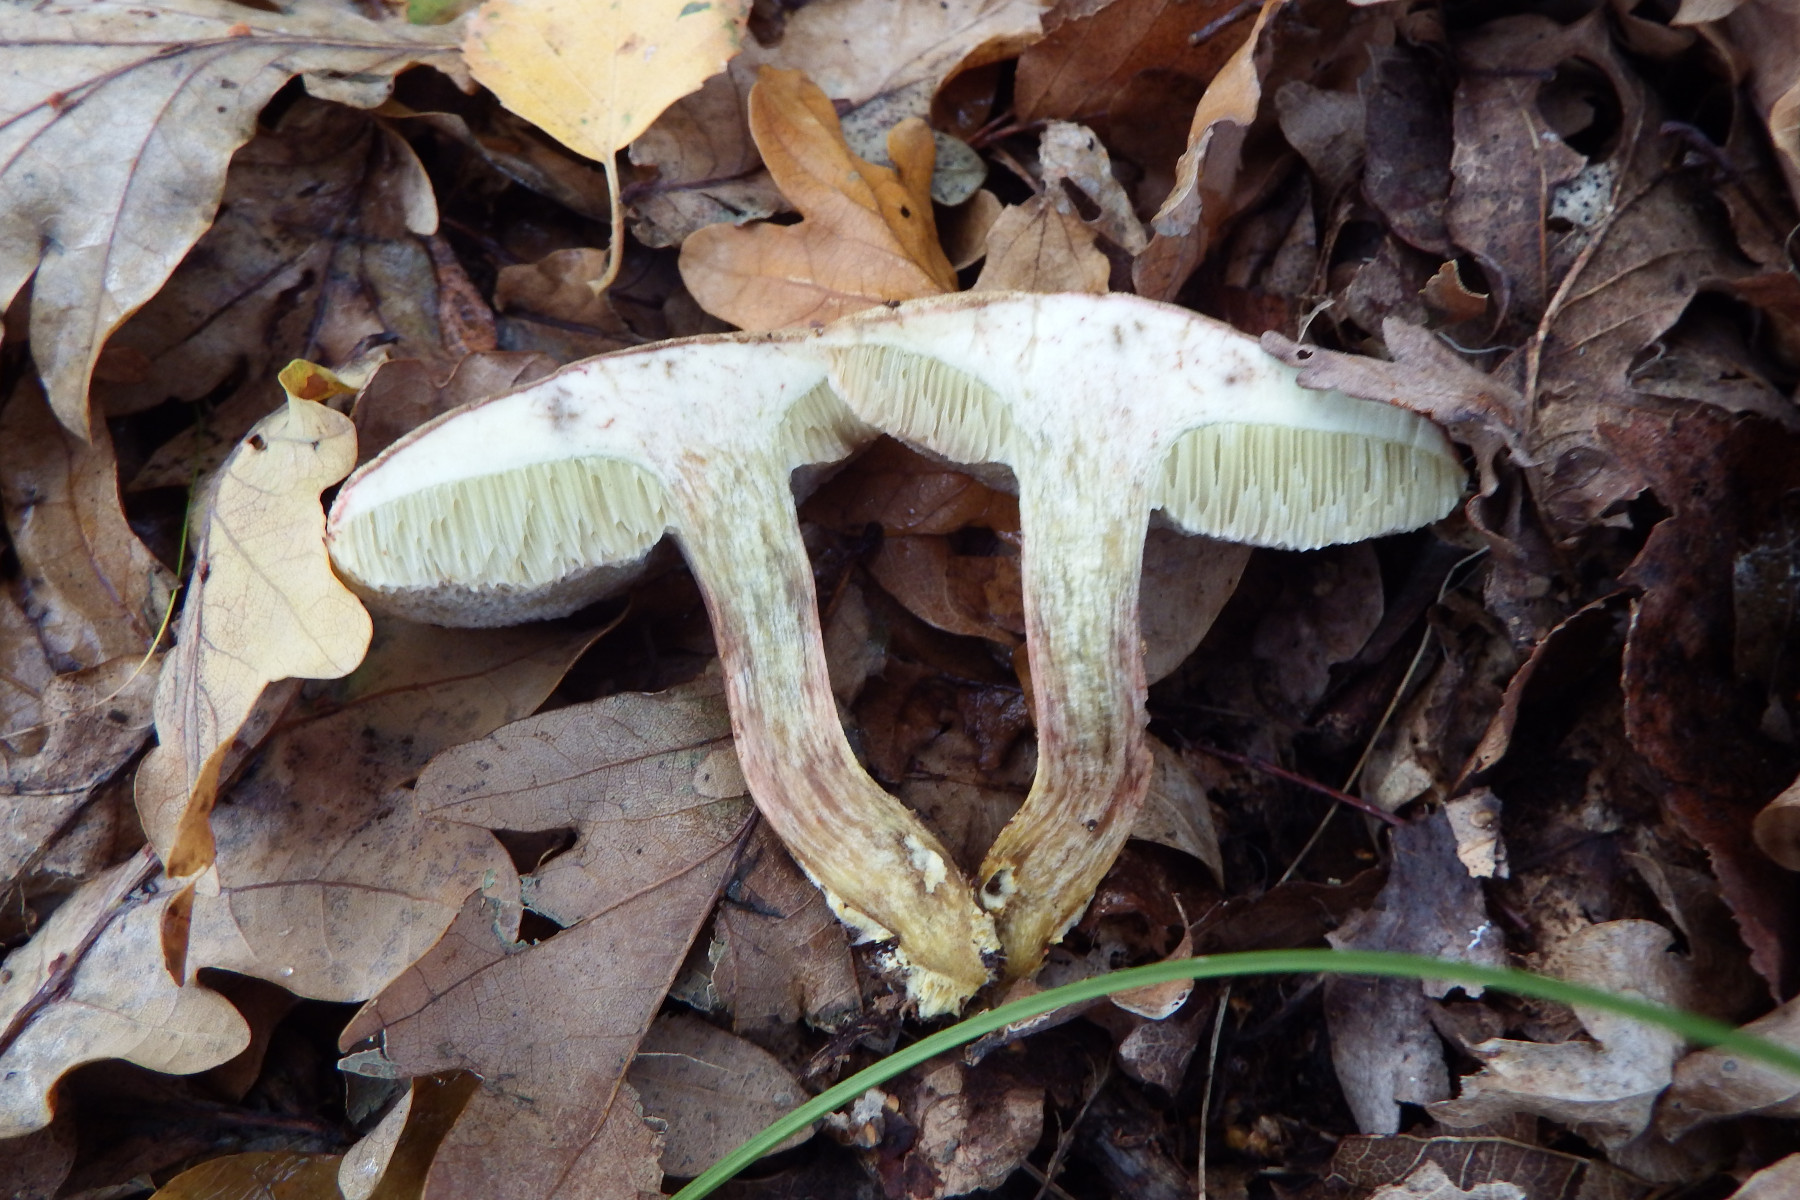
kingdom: Fungi
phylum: Basidiomycota
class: Agaricomycetes
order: Boletales
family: Boletaceae
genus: Xerocomellus
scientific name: Xerocomellus pruinatus
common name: dugget rørhat
